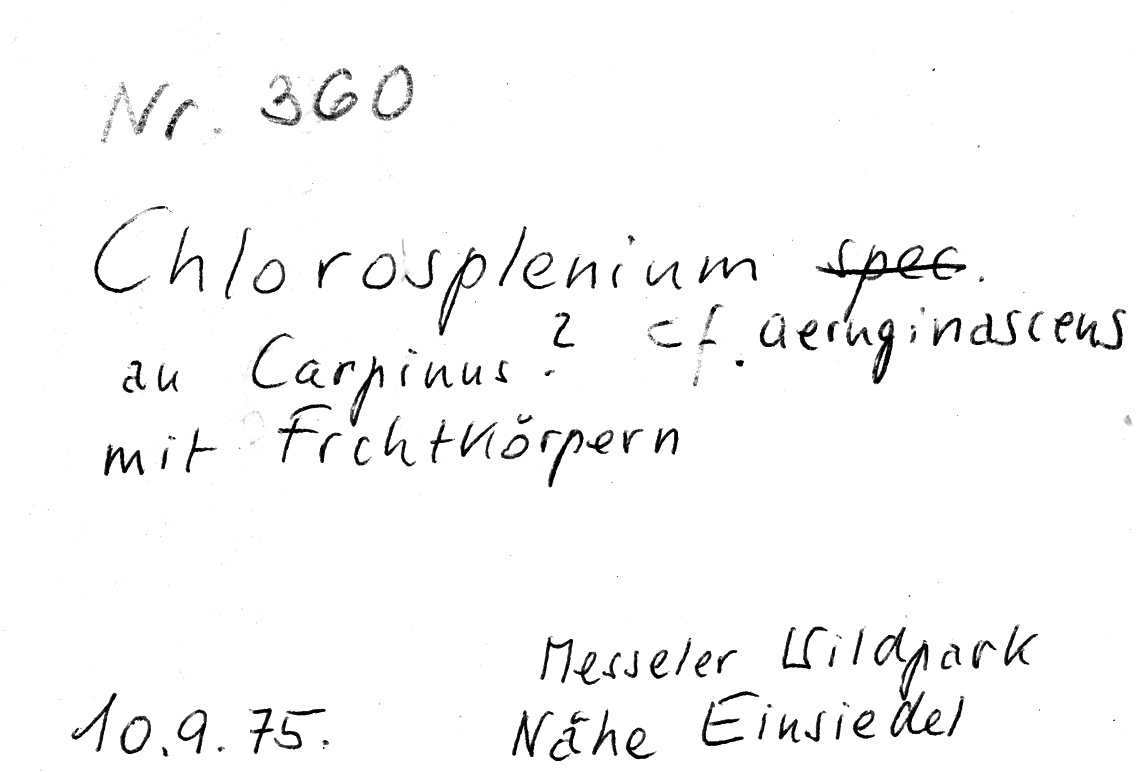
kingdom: Fungi
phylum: Ascomycota
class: Leotiomycetes
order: Helotiales
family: Chlorociboriaceae
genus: Chlorociboria
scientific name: Chlorociboria aeruginascens
